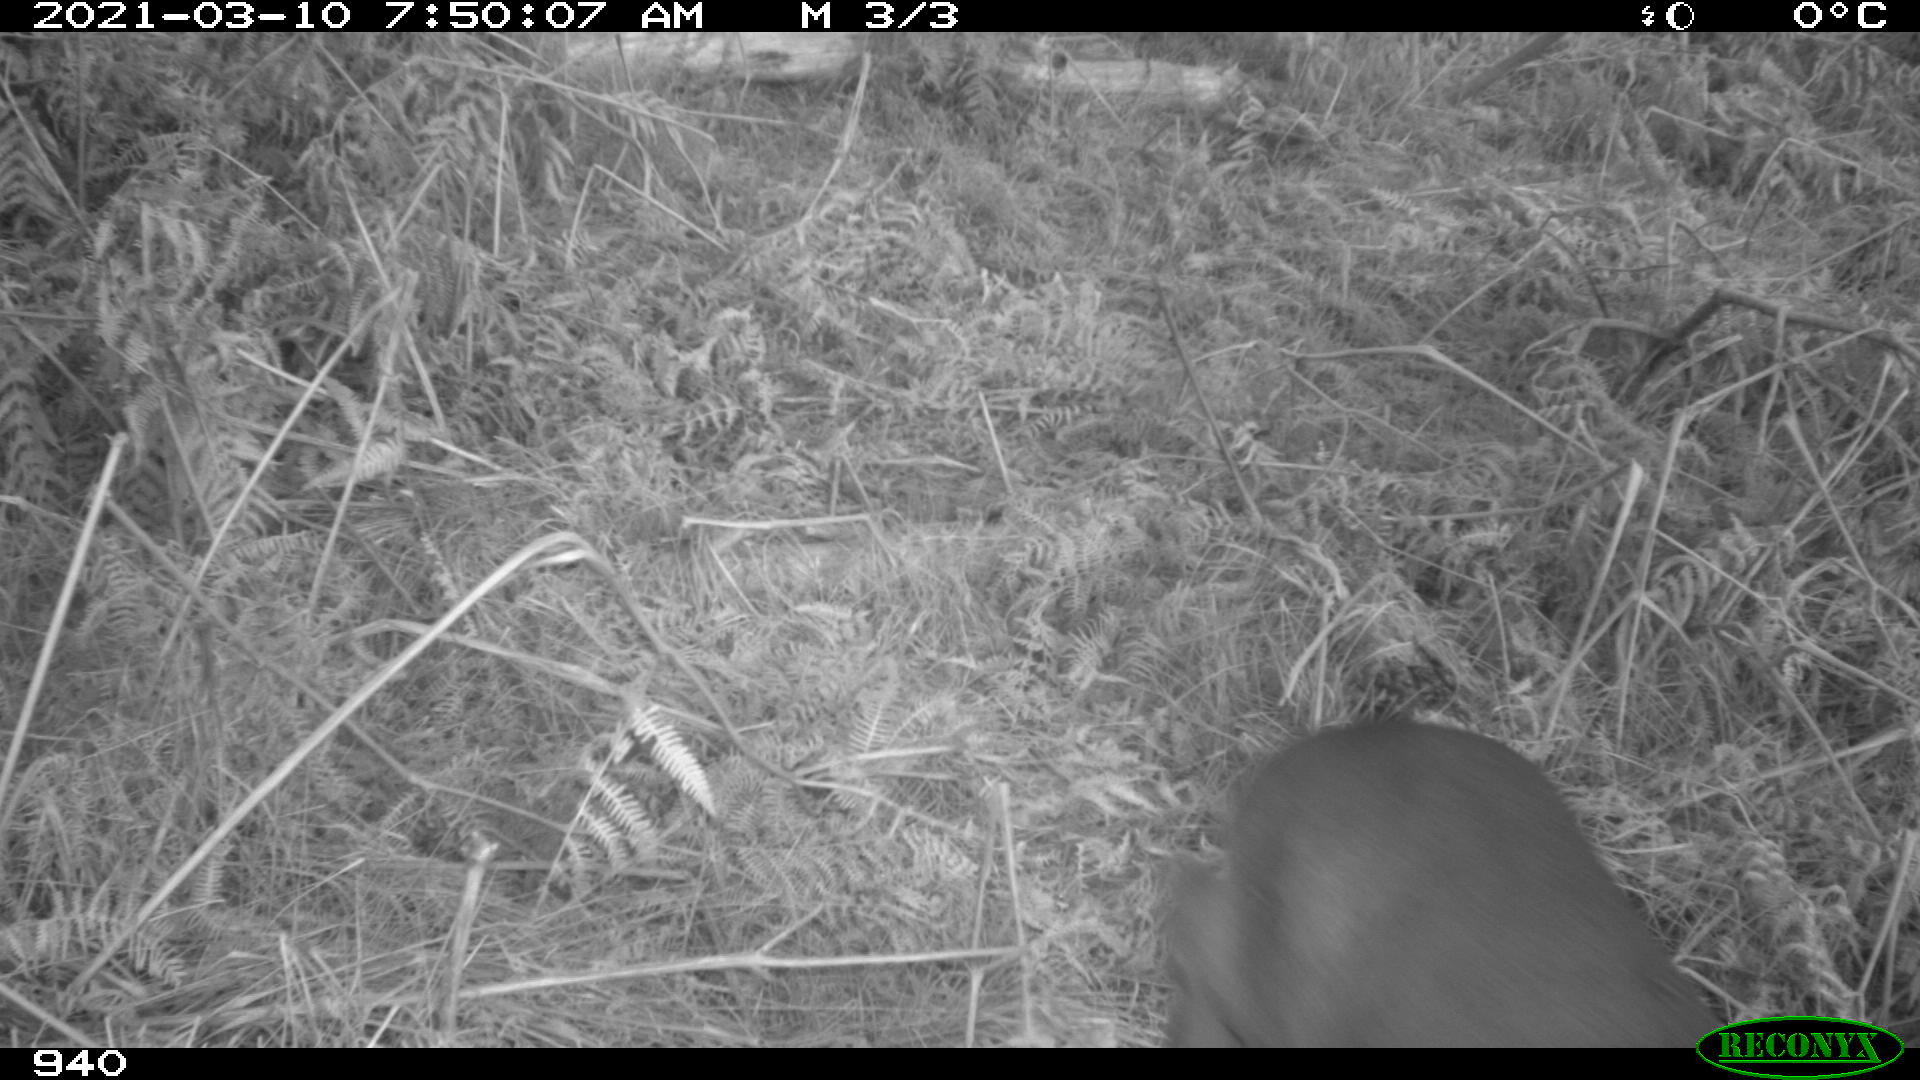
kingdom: Animalia
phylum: Chordata
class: Mammalia
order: Artiodactyla
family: Cervidae
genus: Capreolus
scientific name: Capreolus capreolus
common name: Western roe deer
